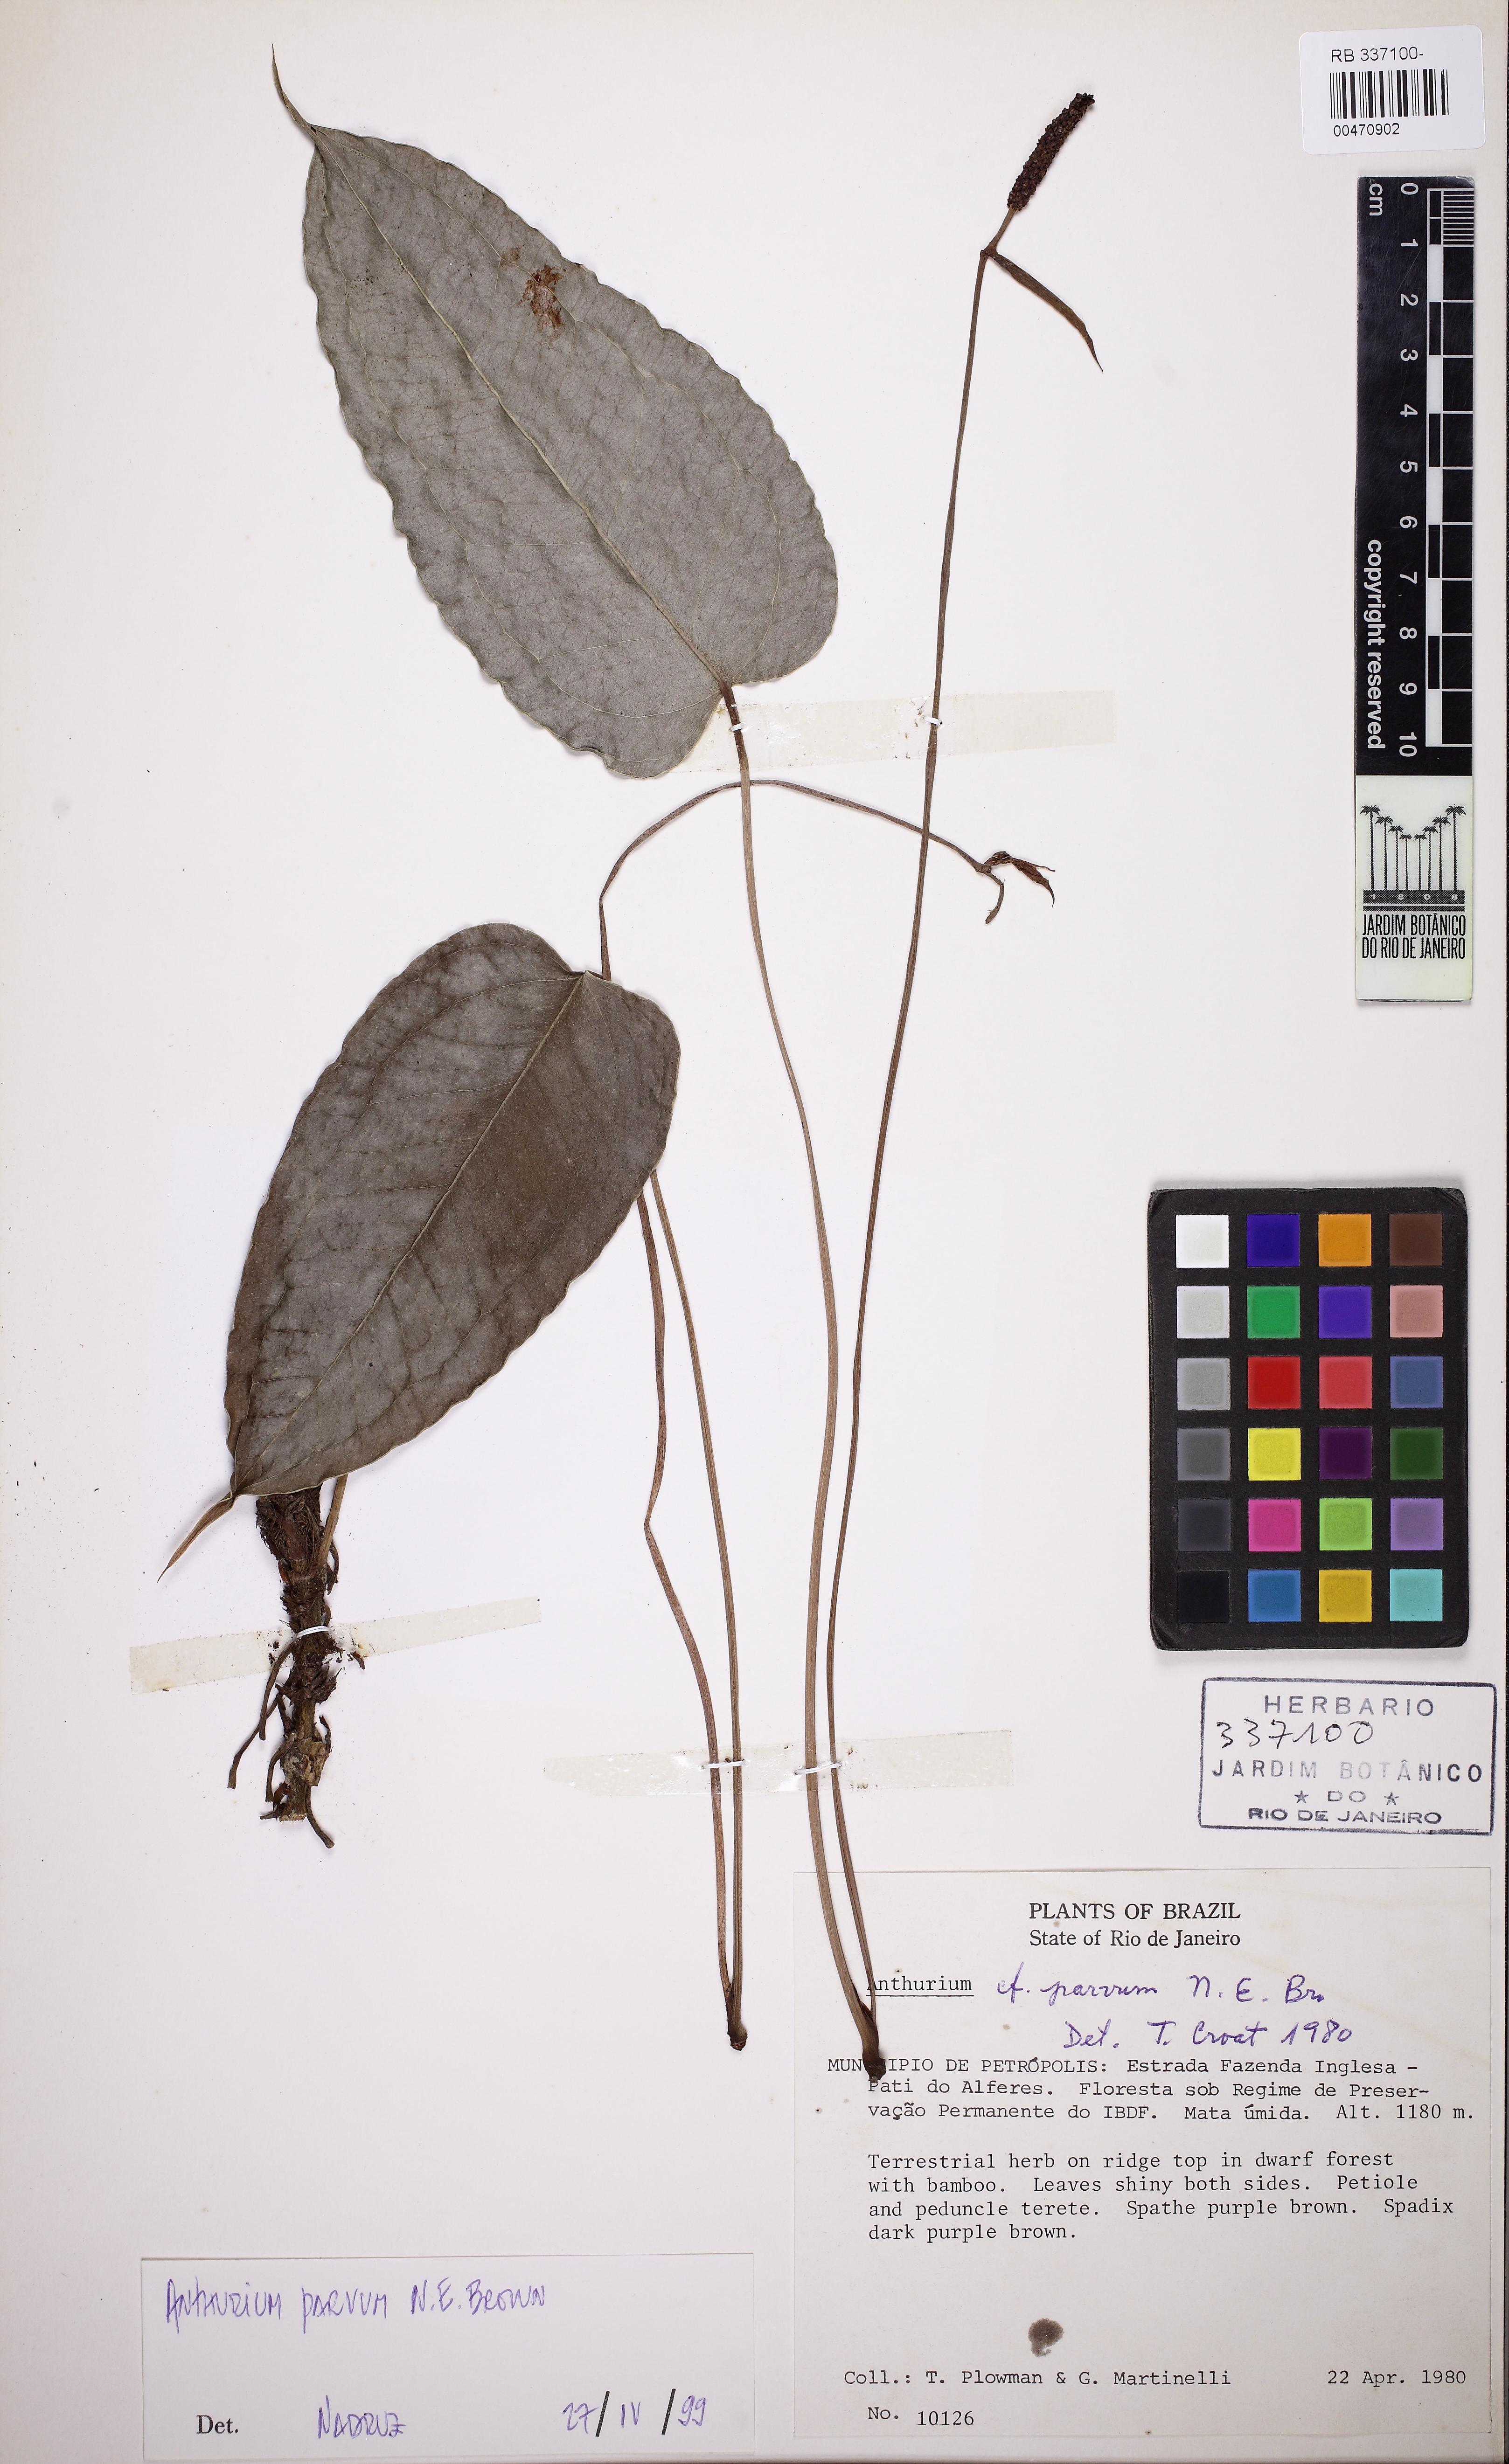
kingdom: Plantae
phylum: Tracheophyta
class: Liliopsida
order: Alismatales
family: Araceae
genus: Anthurium
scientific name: Anthurium parvum
